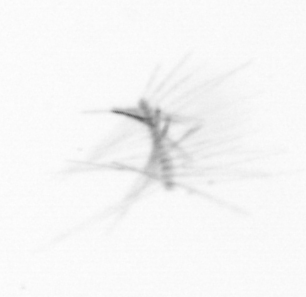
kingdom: Chromista
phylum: Ochrophyta
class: Bacillariophyceae
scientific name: Bacillariophyceae
